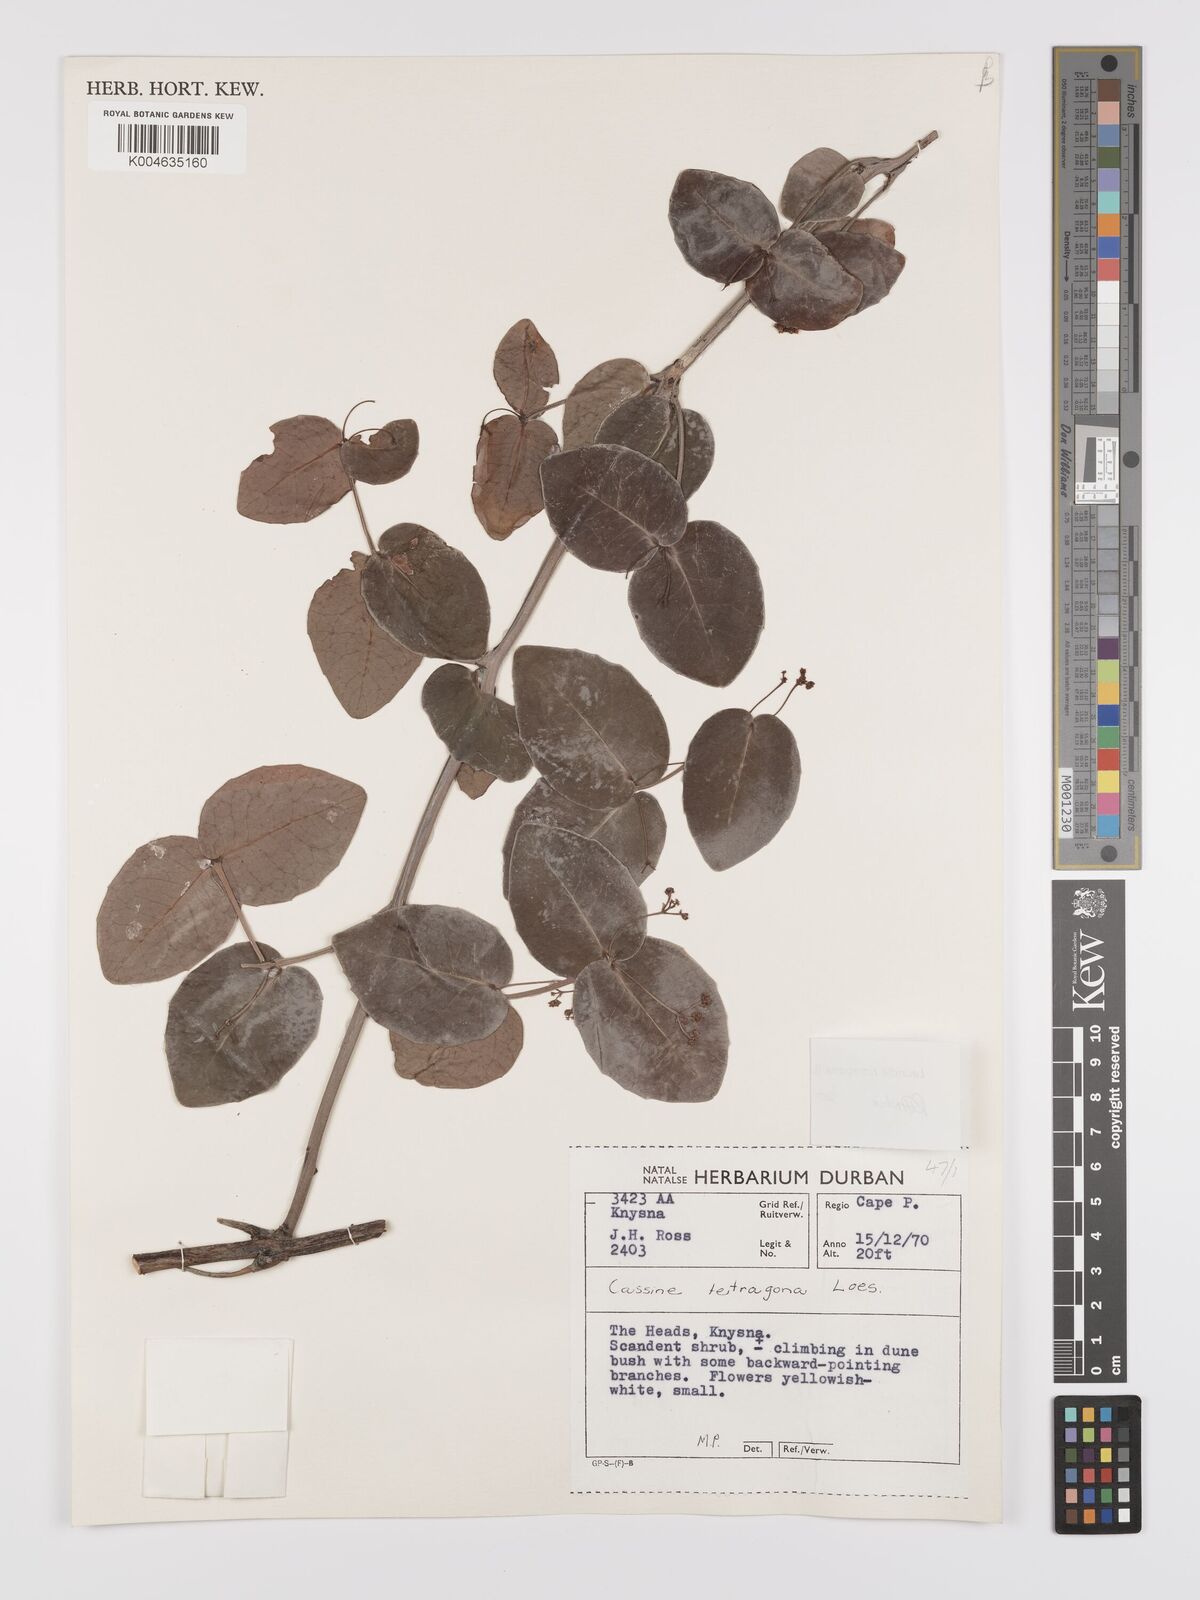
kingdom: Plantae
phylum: Tracheophyta
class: Magnoliopsida
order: Celastrales
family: Celastraceae
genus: Lauridia
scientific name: Lauridia tetragona
